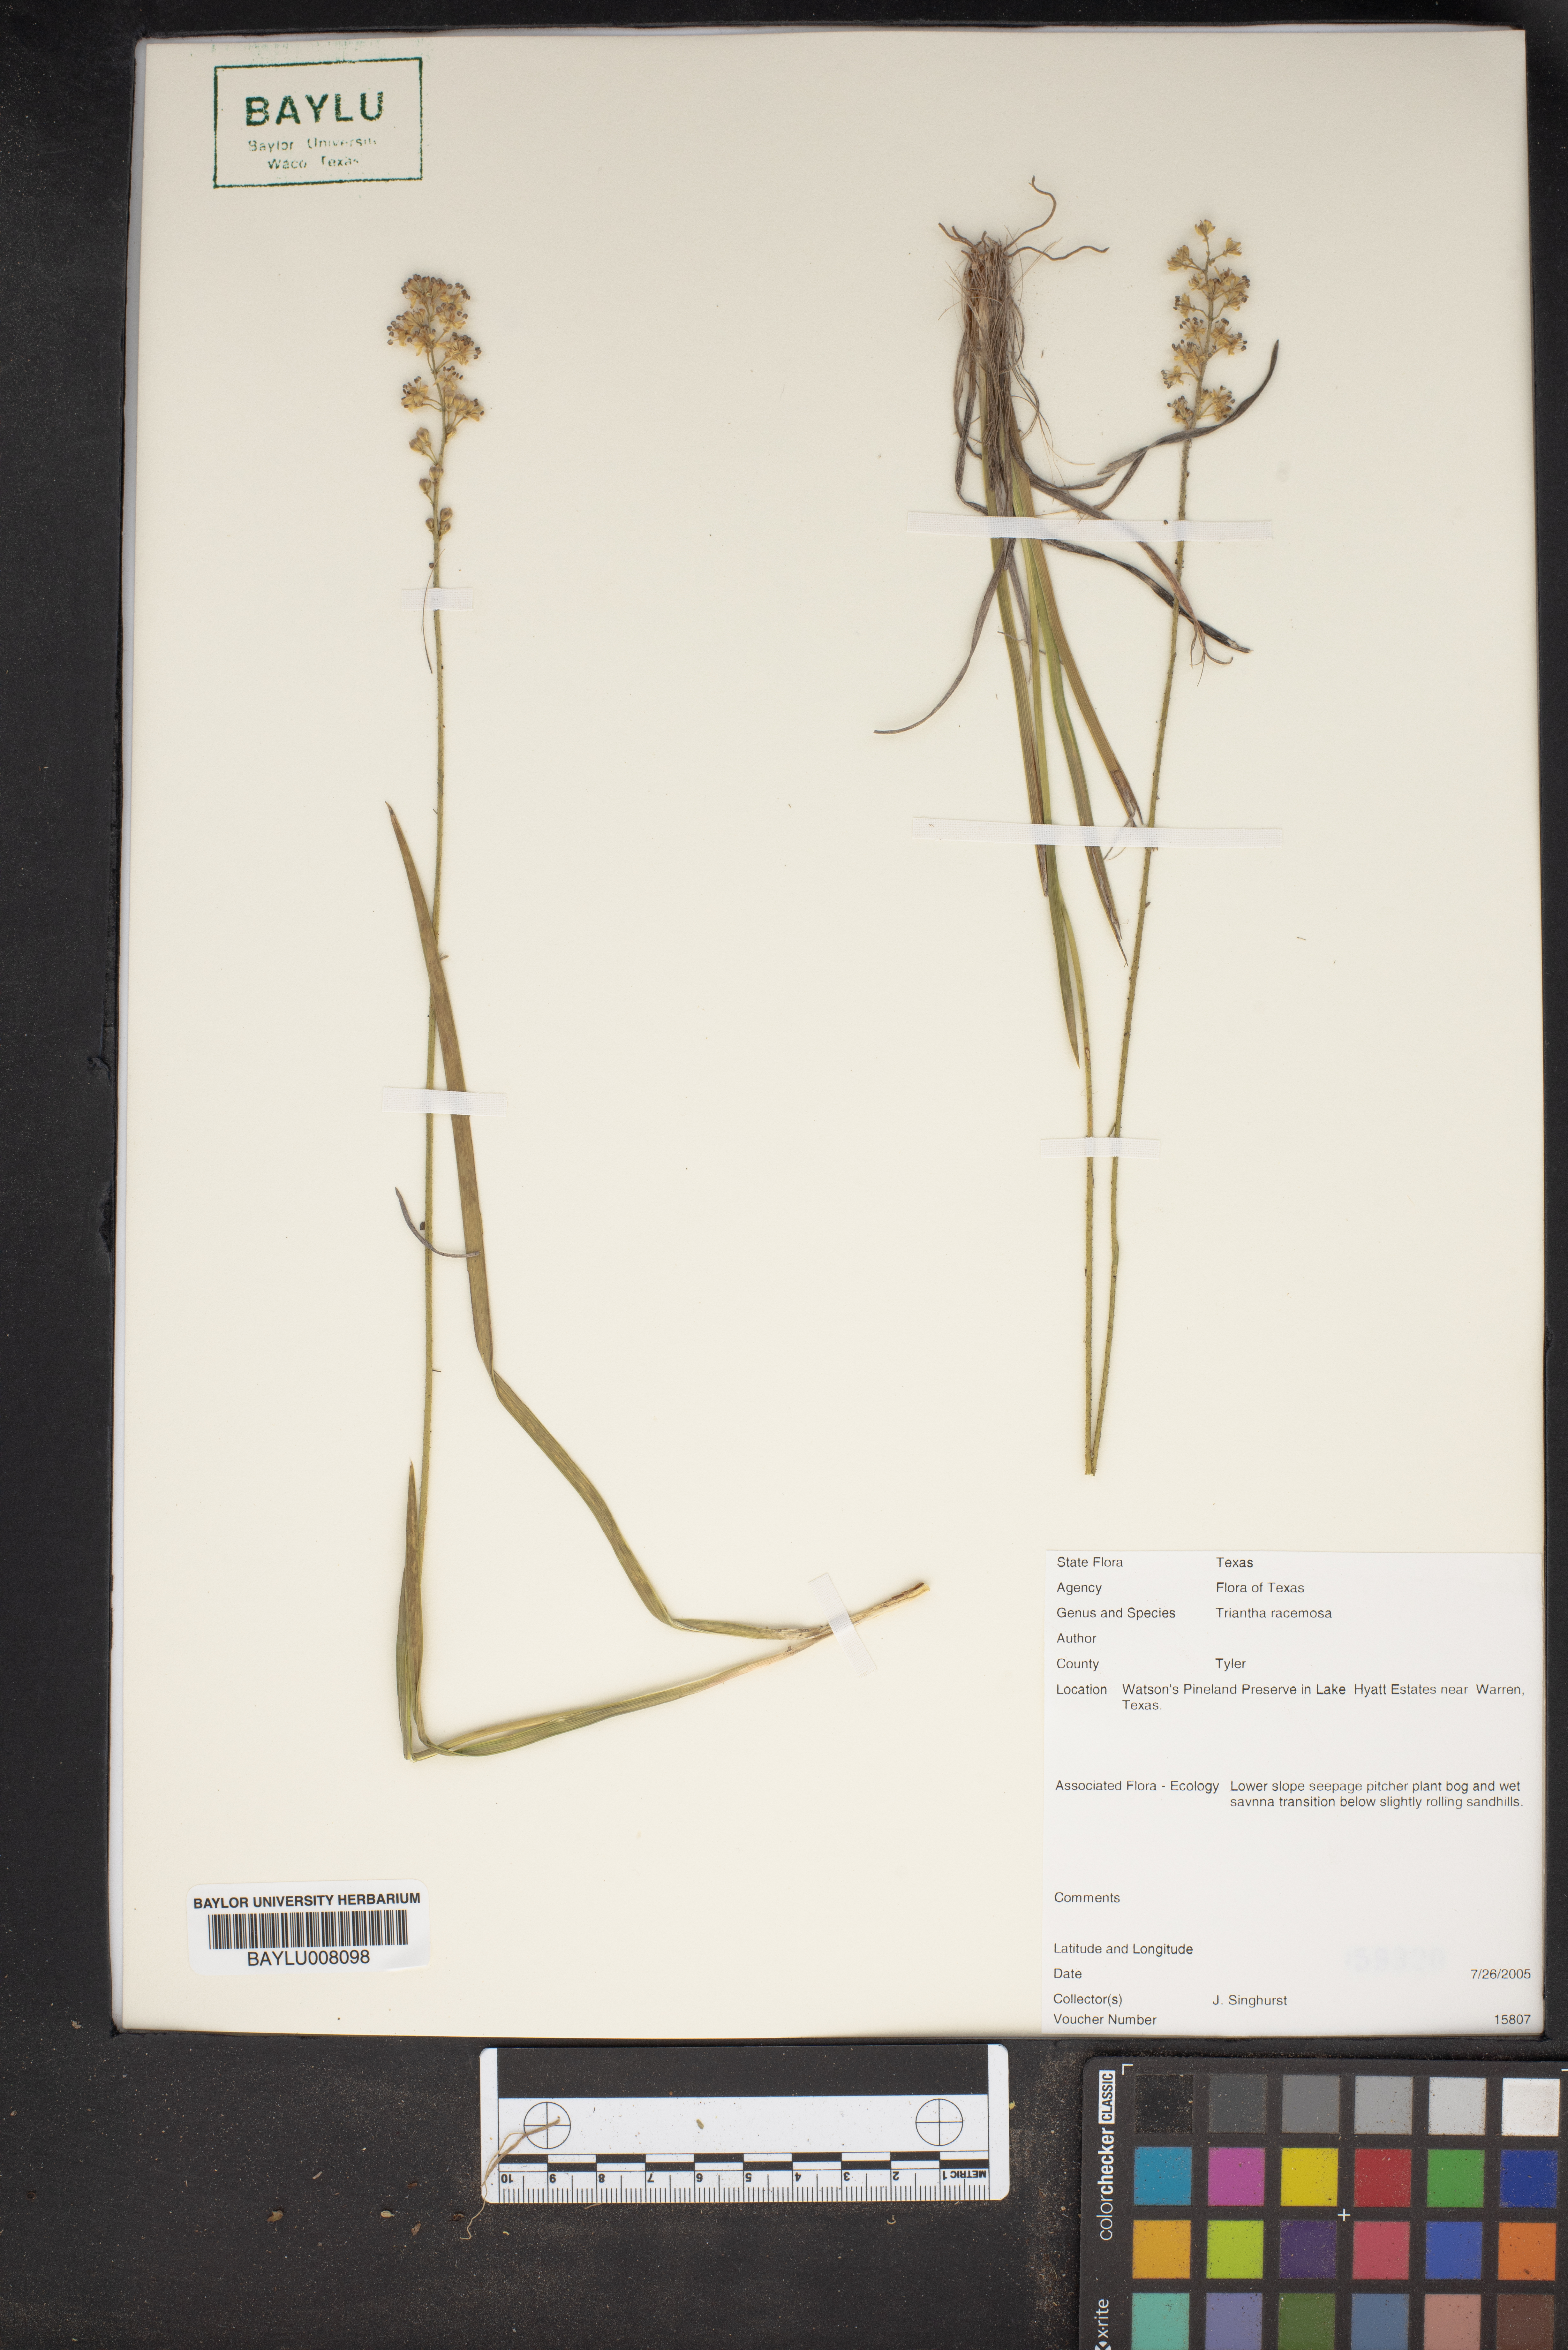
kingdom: Plantae
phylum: Tracheophyta
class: Liliopsida
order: Alismatales
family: Tofieldiaceae
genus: Triantha
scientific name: Triantha racemosa
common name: Coastal false asphodel
